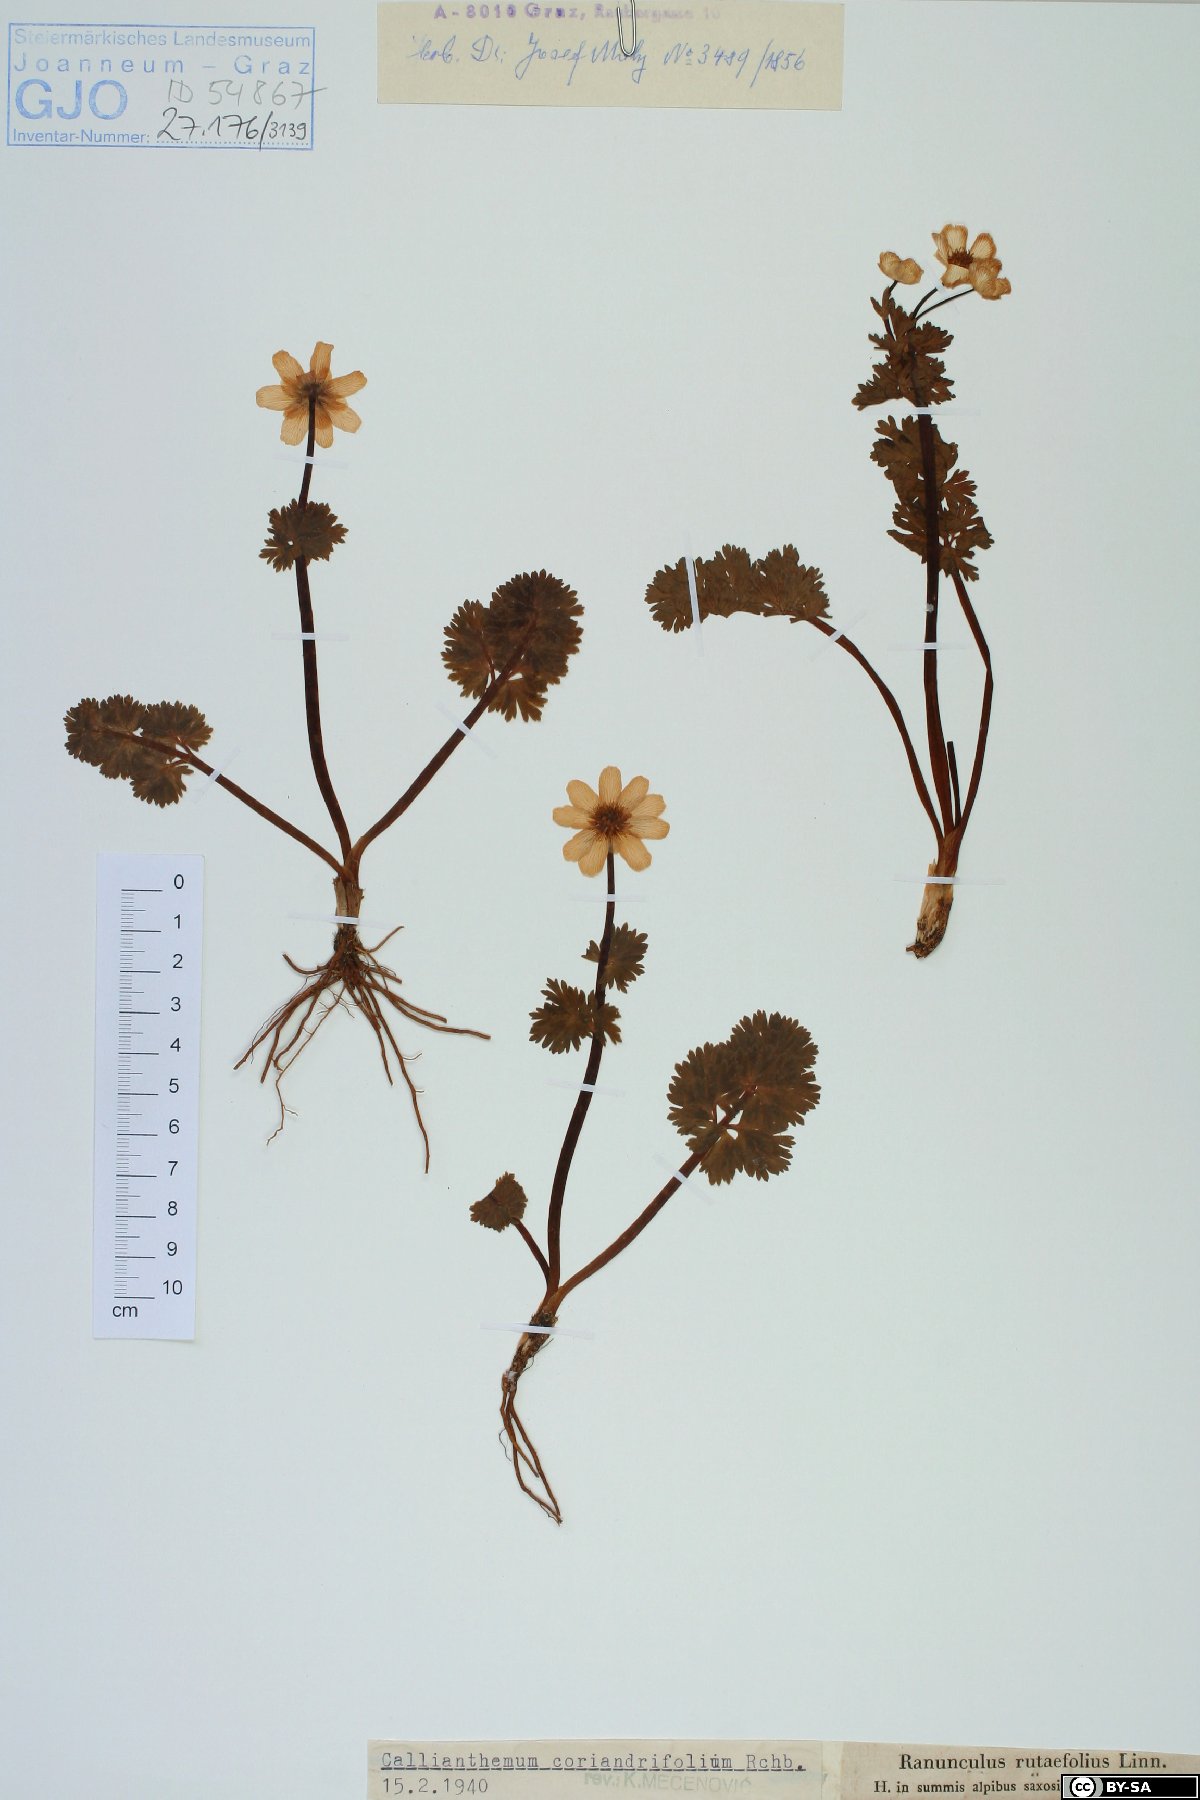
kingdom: Plantae
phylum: Tracheophyta
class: Magnoliopsida
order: Ranunculales
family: Ranunculaceae
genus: Callianthemum
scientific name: Callianthemum coriandrifolium
